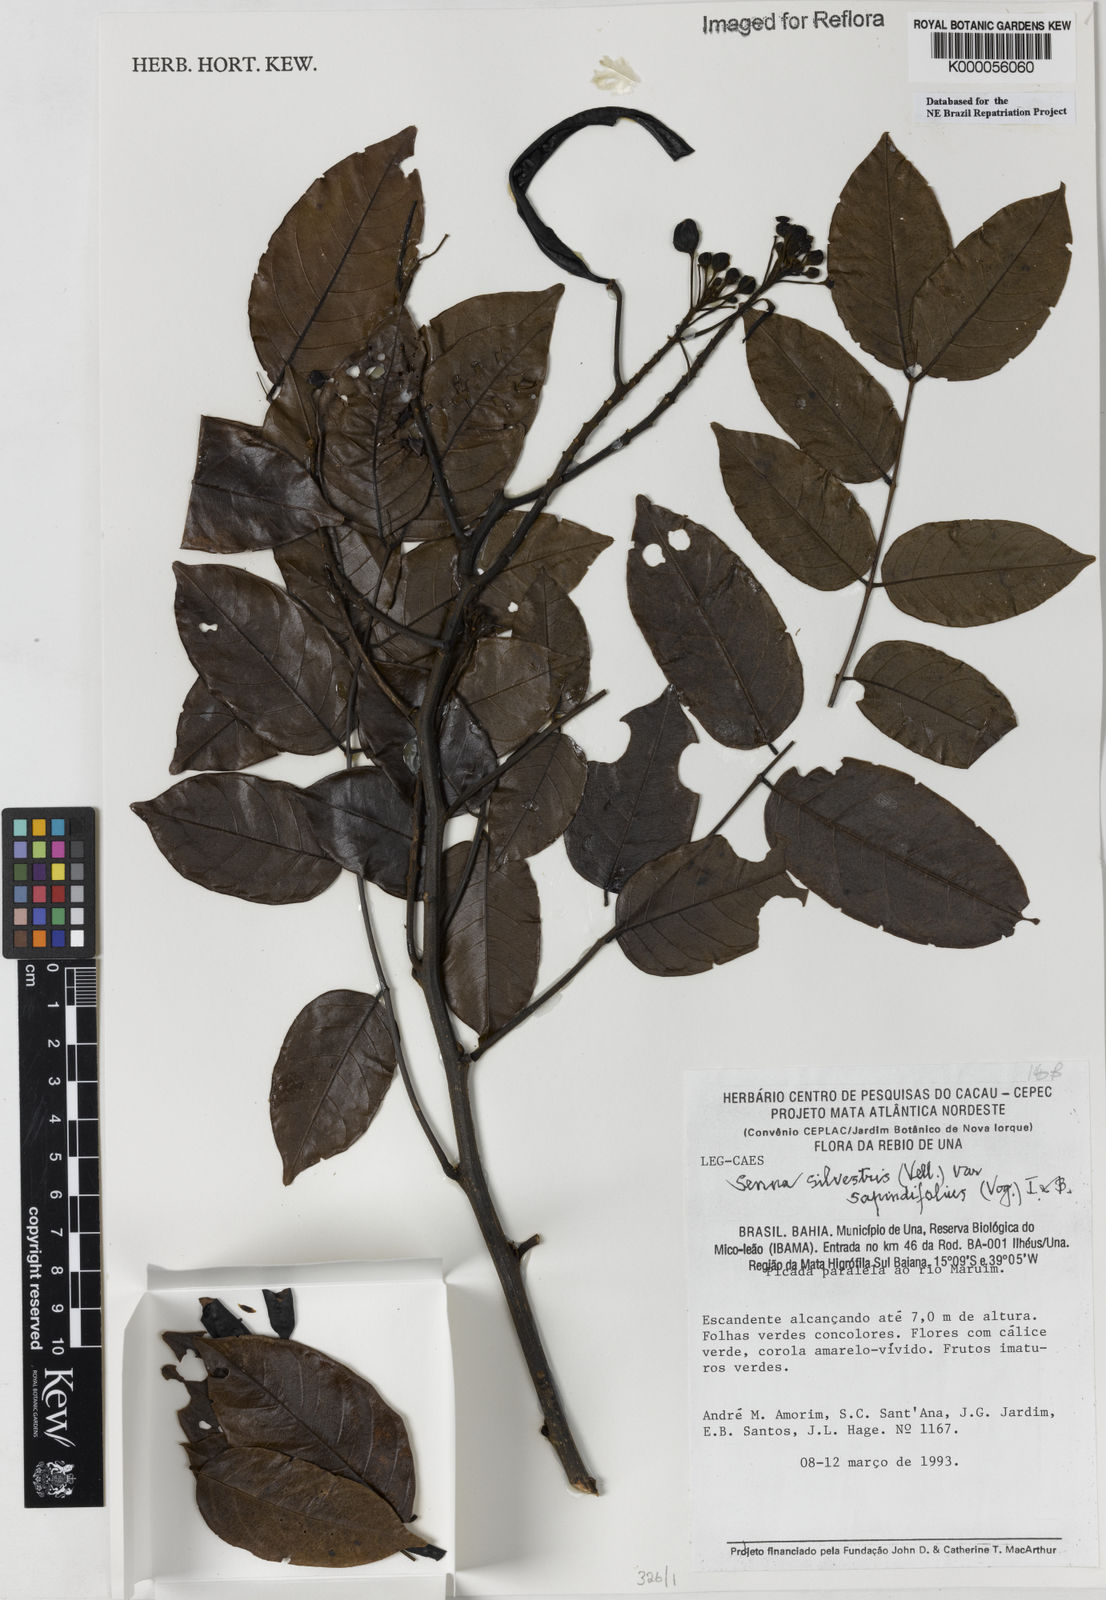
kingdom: Plantae
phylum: Tracheophyta
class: Magnoliopsida
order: Fabales
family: Fabaceae
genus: Senna
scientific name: Senna silvestris
